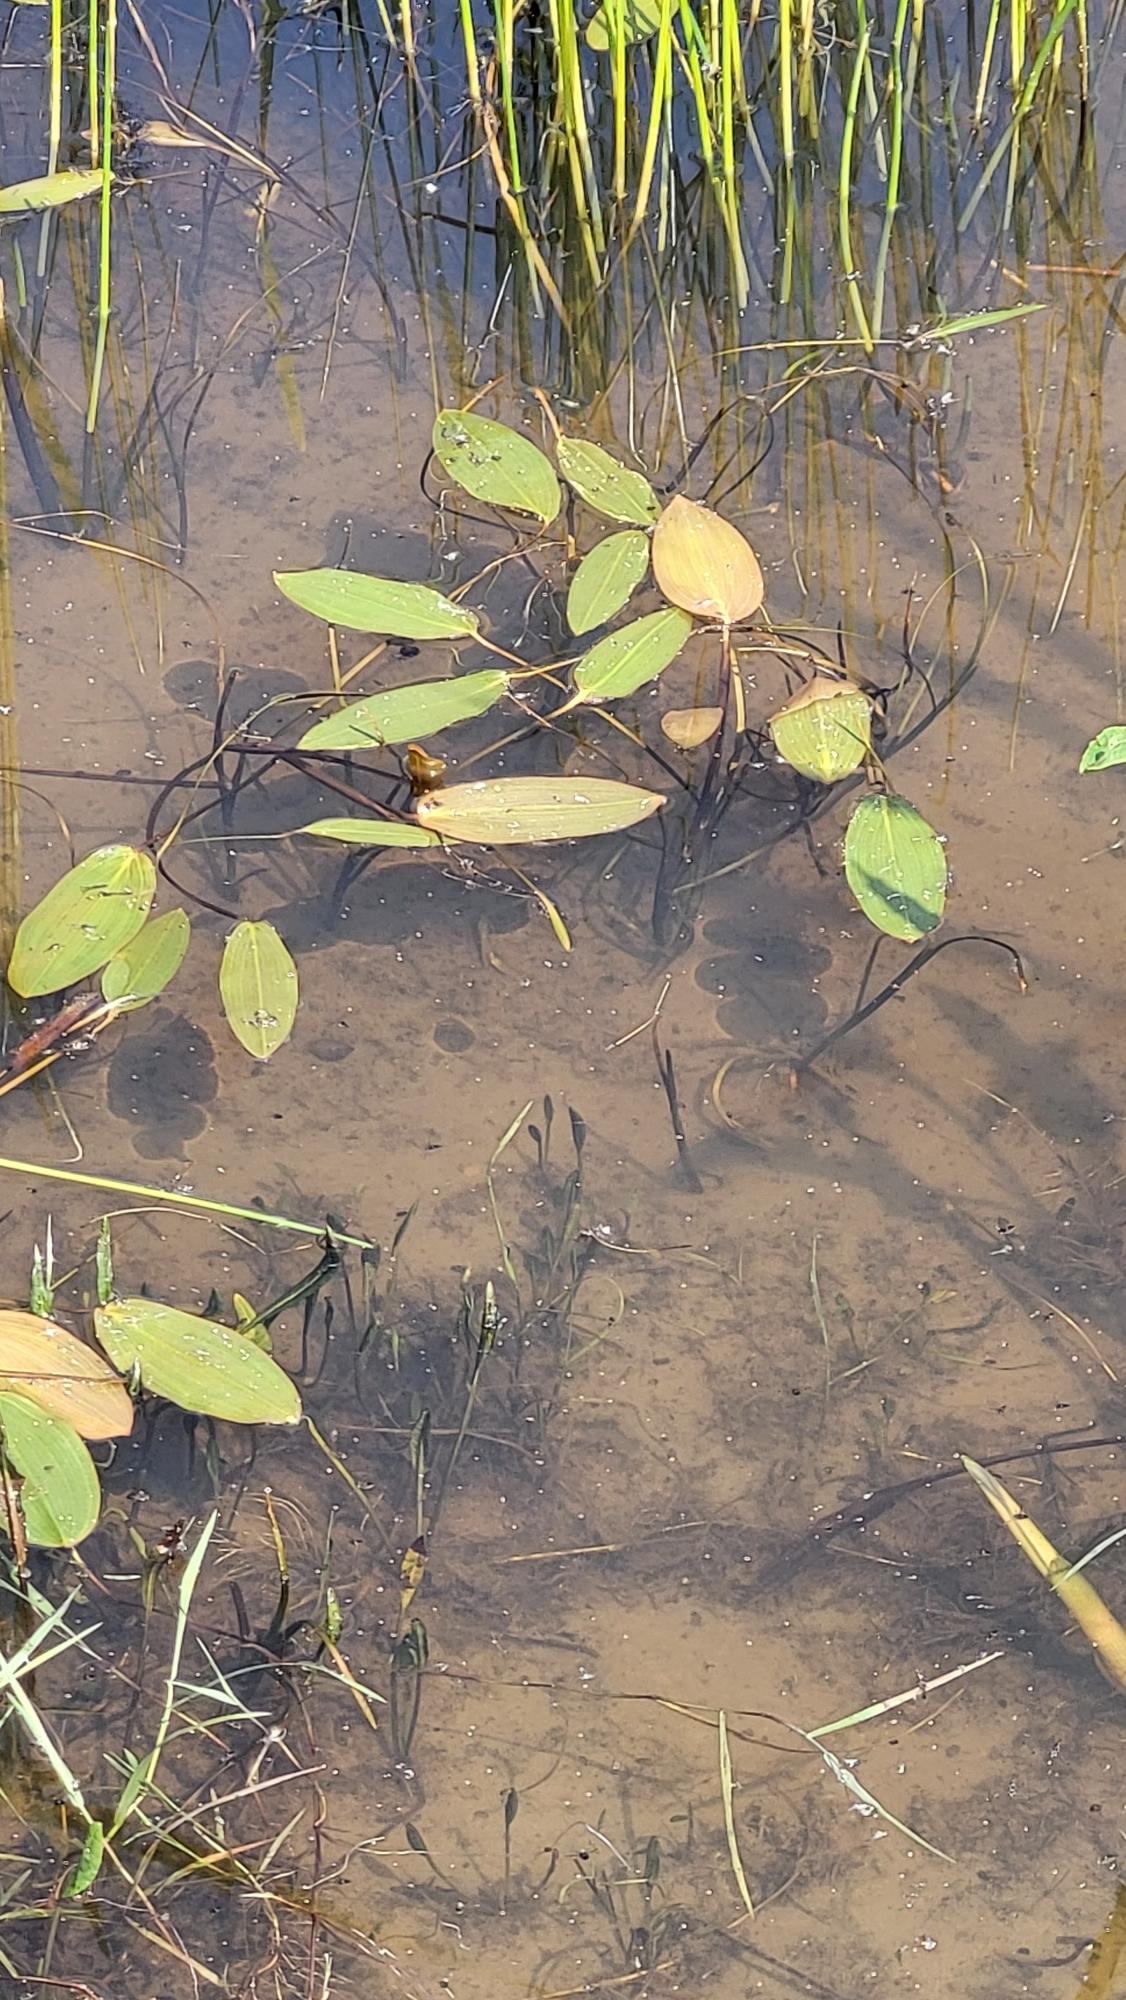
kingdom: Plantae
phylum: Tracheophyta
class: Liliopsida
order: Alismatales
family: Potamogetonaceae
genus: Potamogeton
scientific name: Potamogeton natans
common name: Svømmende vandaks
